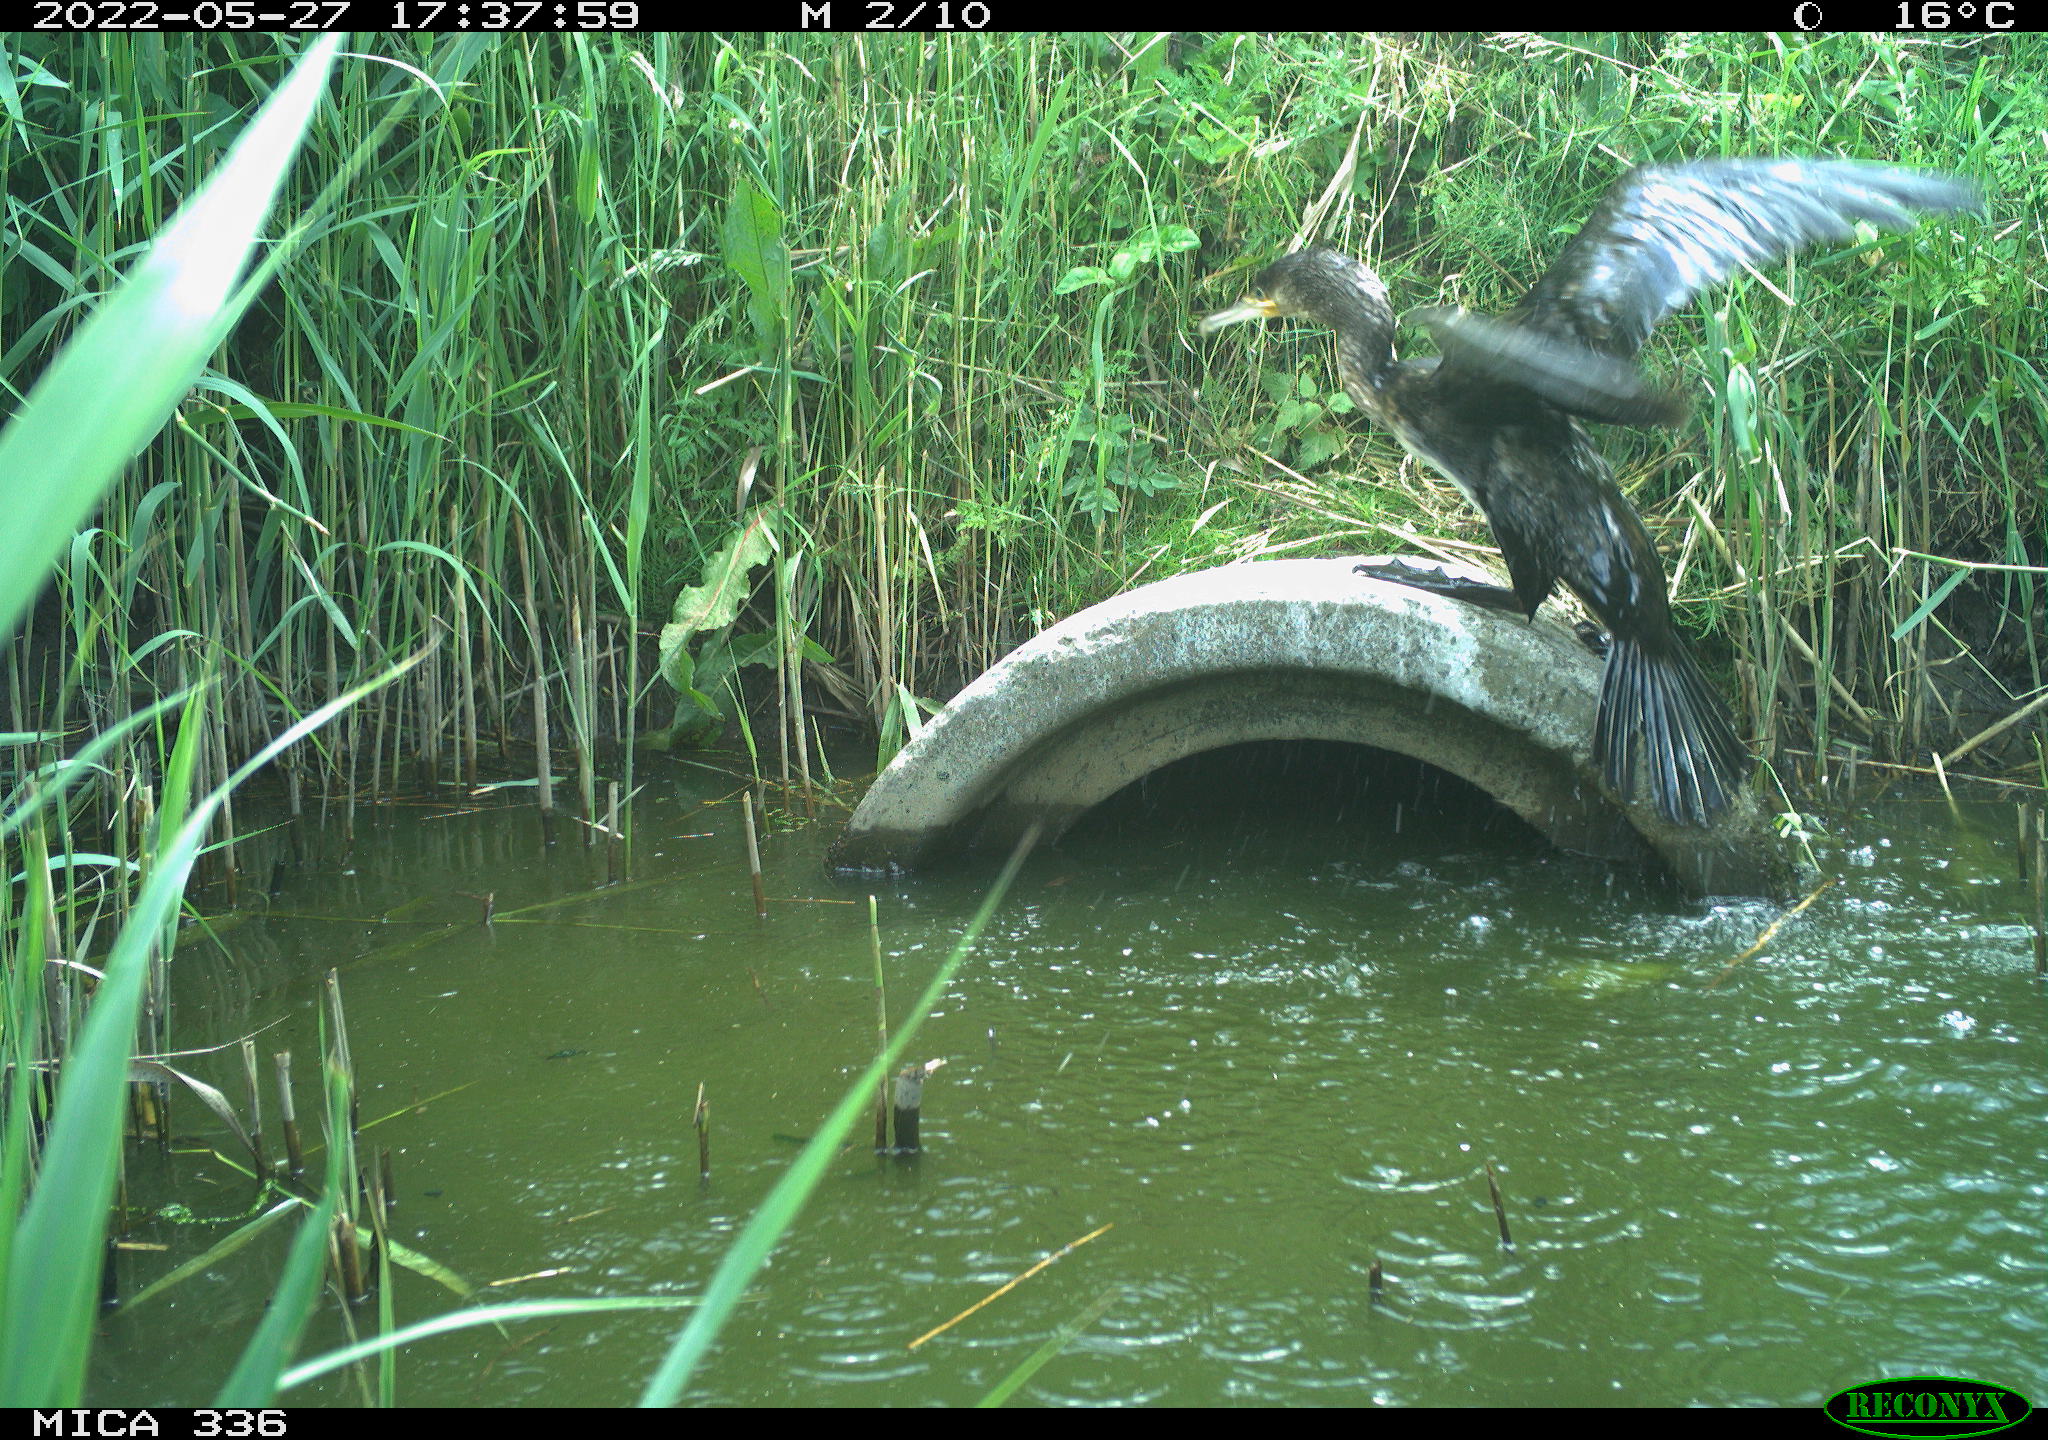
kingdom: Animalia
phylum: Chordata
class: Aves
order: Pelecaniformes
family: Ardeidae
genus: Ardea
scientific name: Ardea
